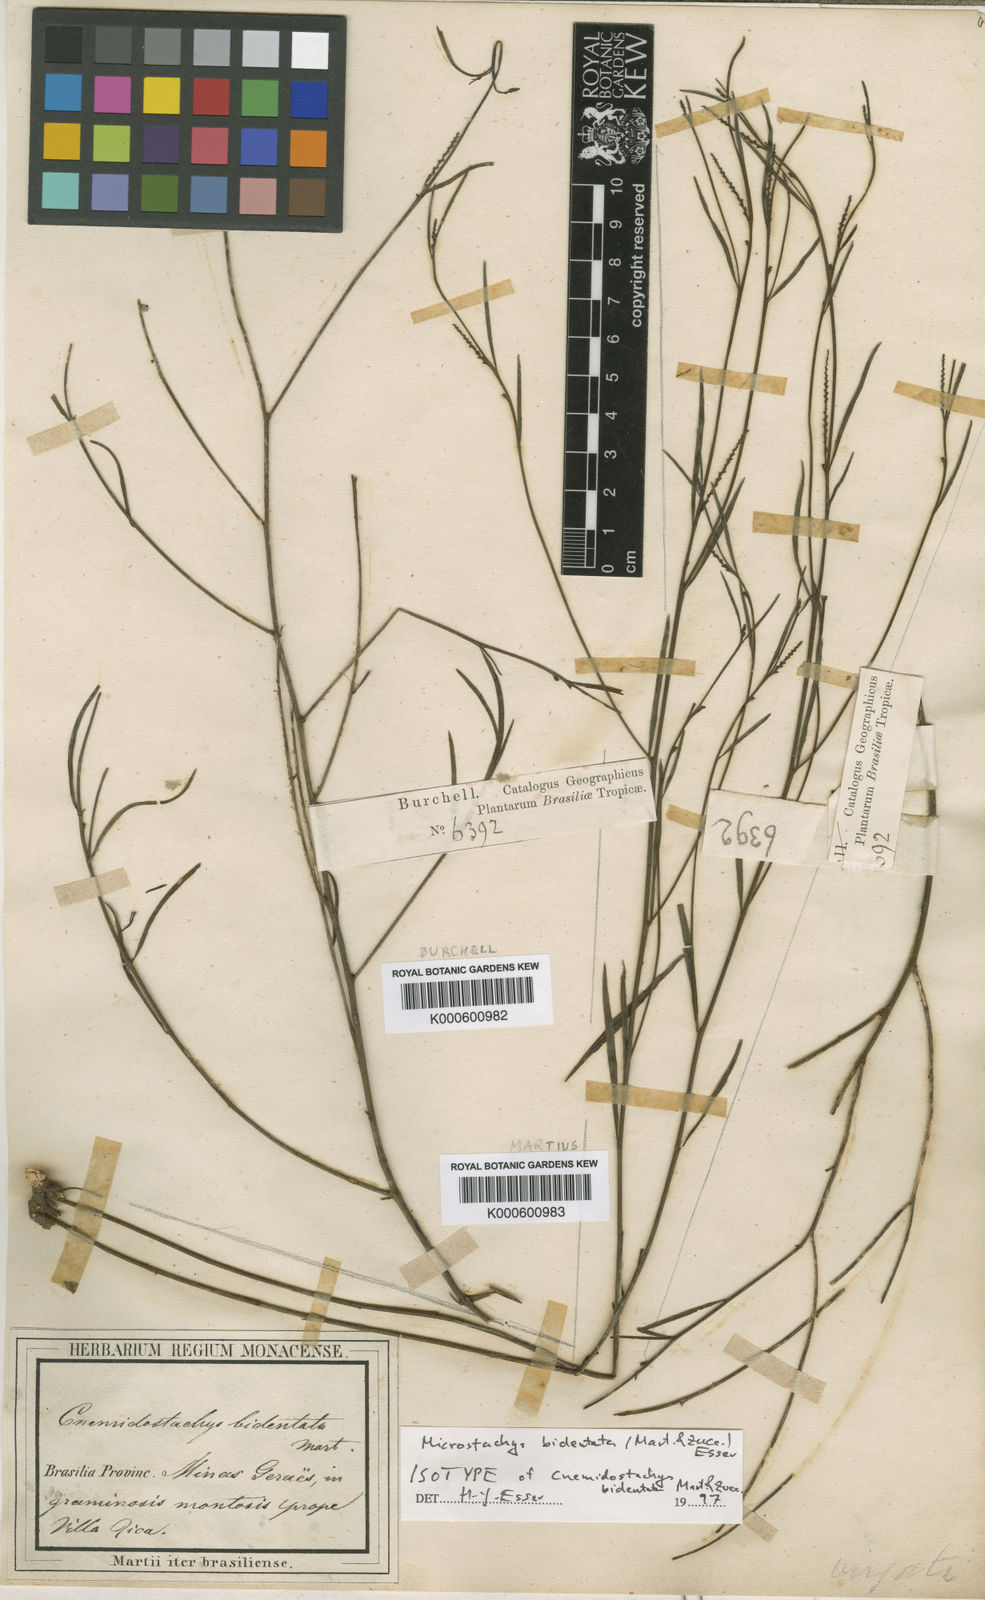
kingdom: Plantae
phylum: Tracheophyta
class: Magnoliopsida
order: Malpighiales
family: Euphorbiaceae
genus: Microstachys
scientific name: Microstachys bidentata
